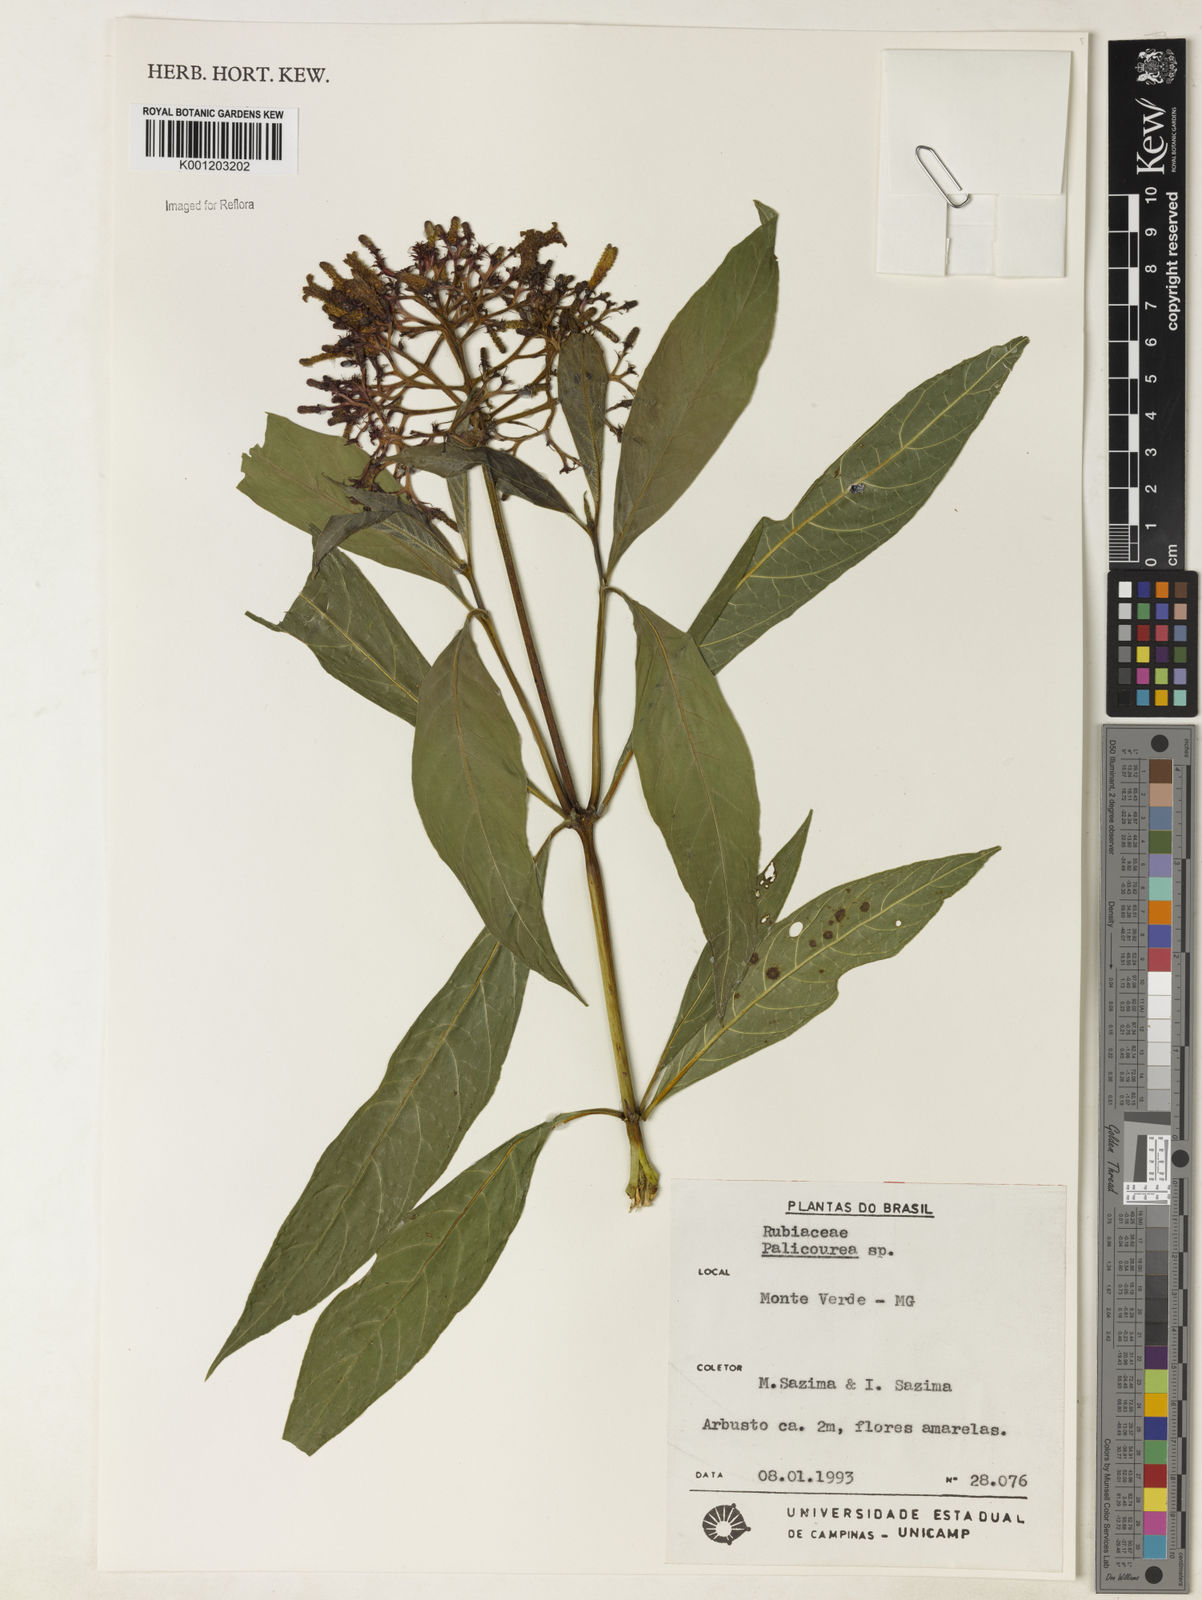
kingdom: Plantae
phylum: Tracheophyta
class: Magnoliopsida
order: Gentianales
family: Rubiaceae
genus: Palicourea
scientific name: Palicourea
